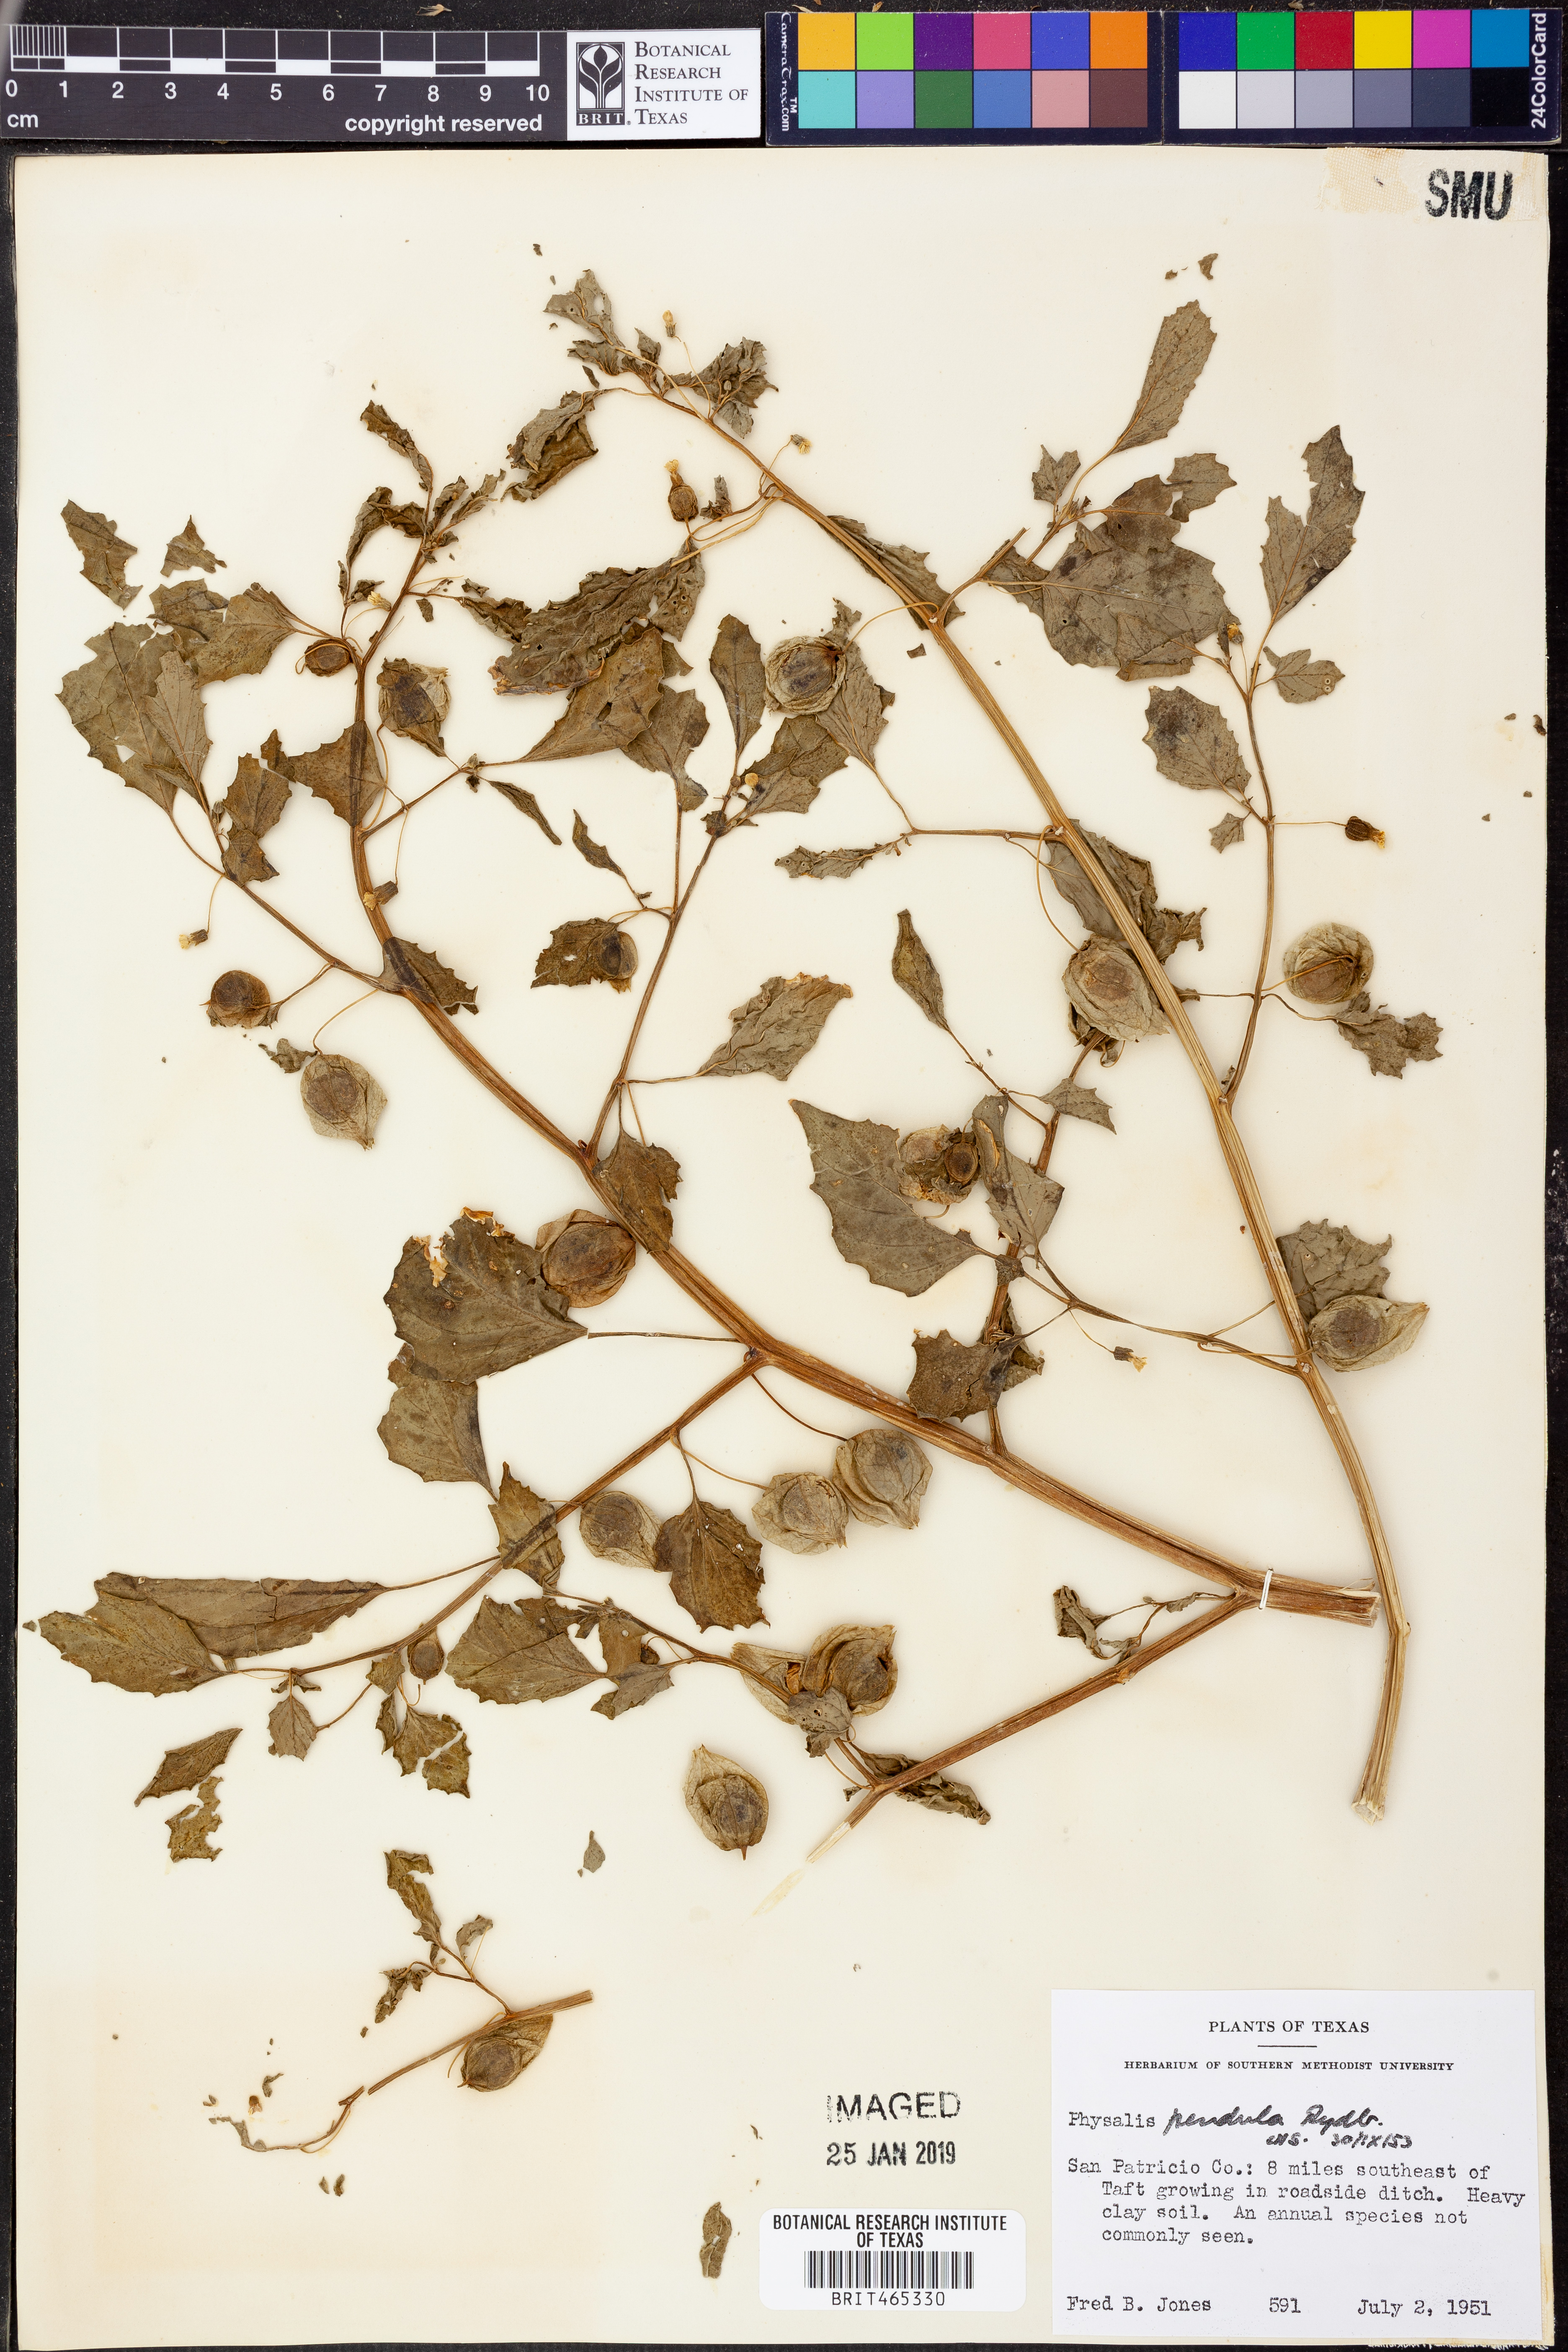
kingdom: Plantae
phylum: Tracheophyta
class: Magnoliopsida
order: Solanales
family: Solanaceae
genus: Physalis
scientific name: Physalis angulata
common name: Angular winter-cherry
